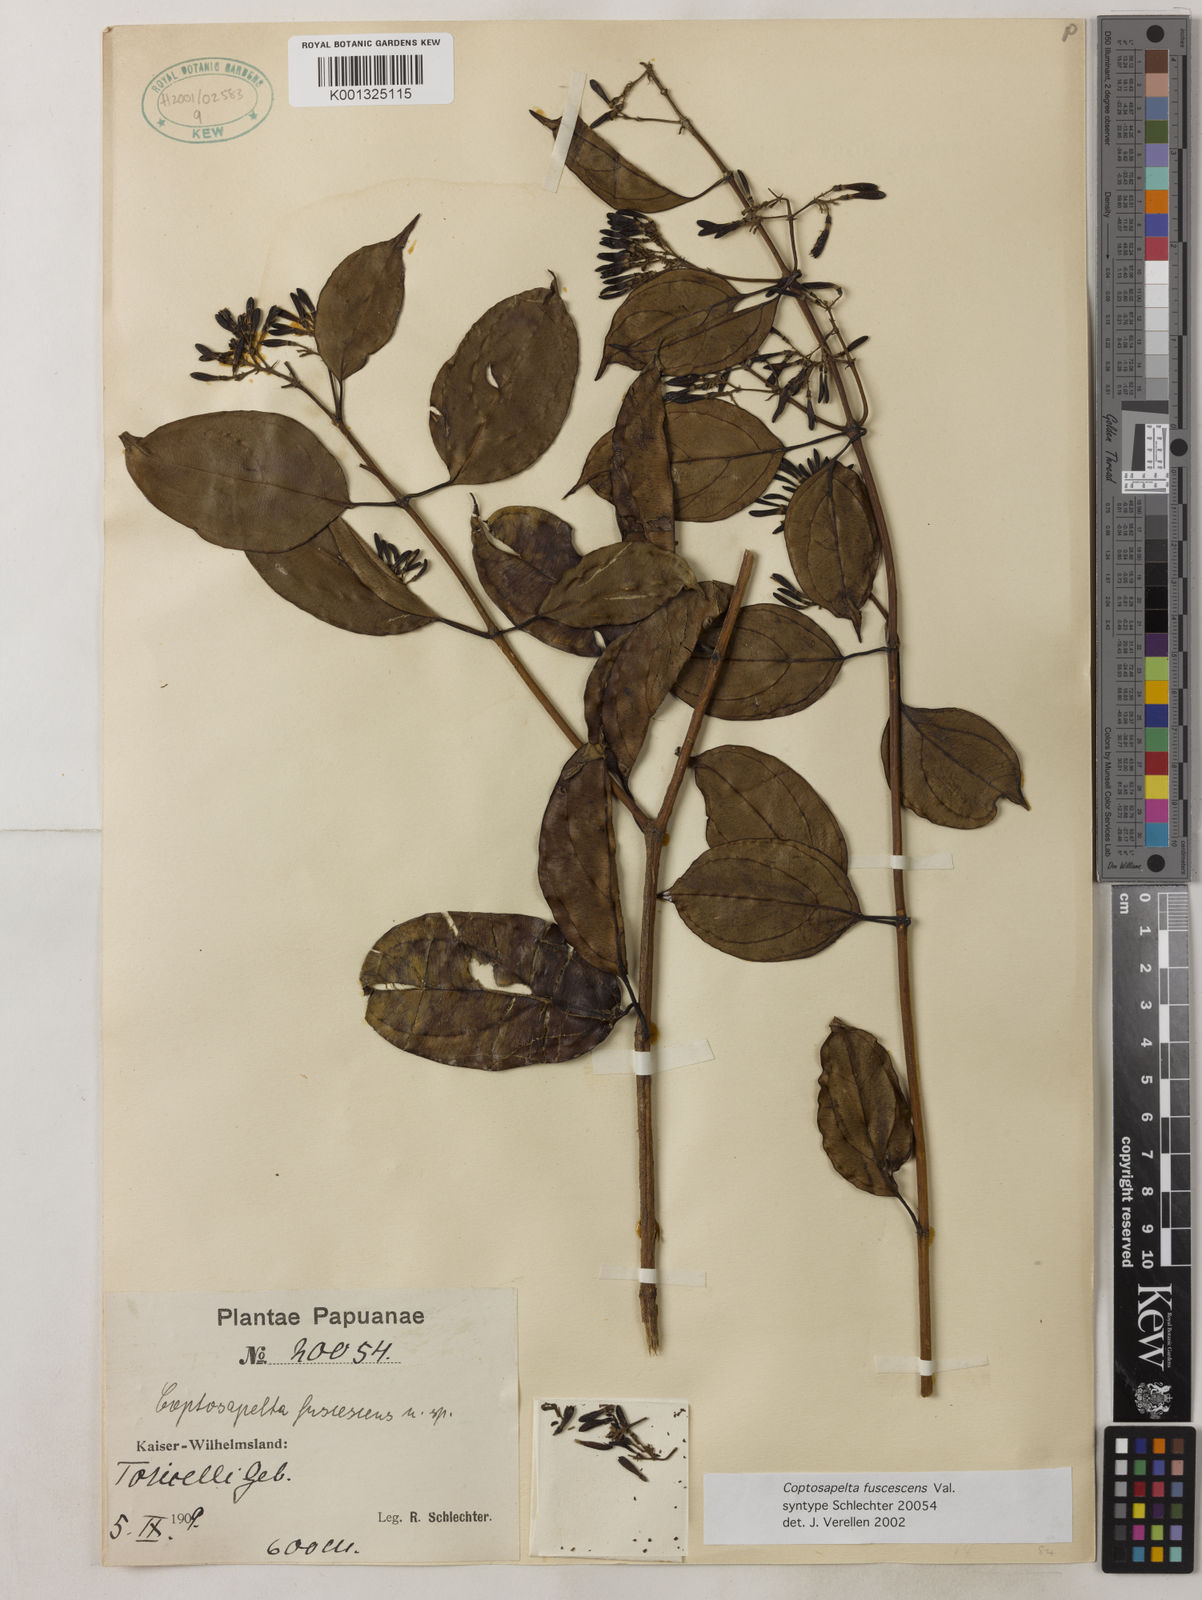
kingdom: Plantae
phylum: Tracheophyta
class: Magnoliopsida
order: Gentianales
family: Rubiaceae
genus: Coptosapelta
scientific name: Coptosapelta fuscescens
